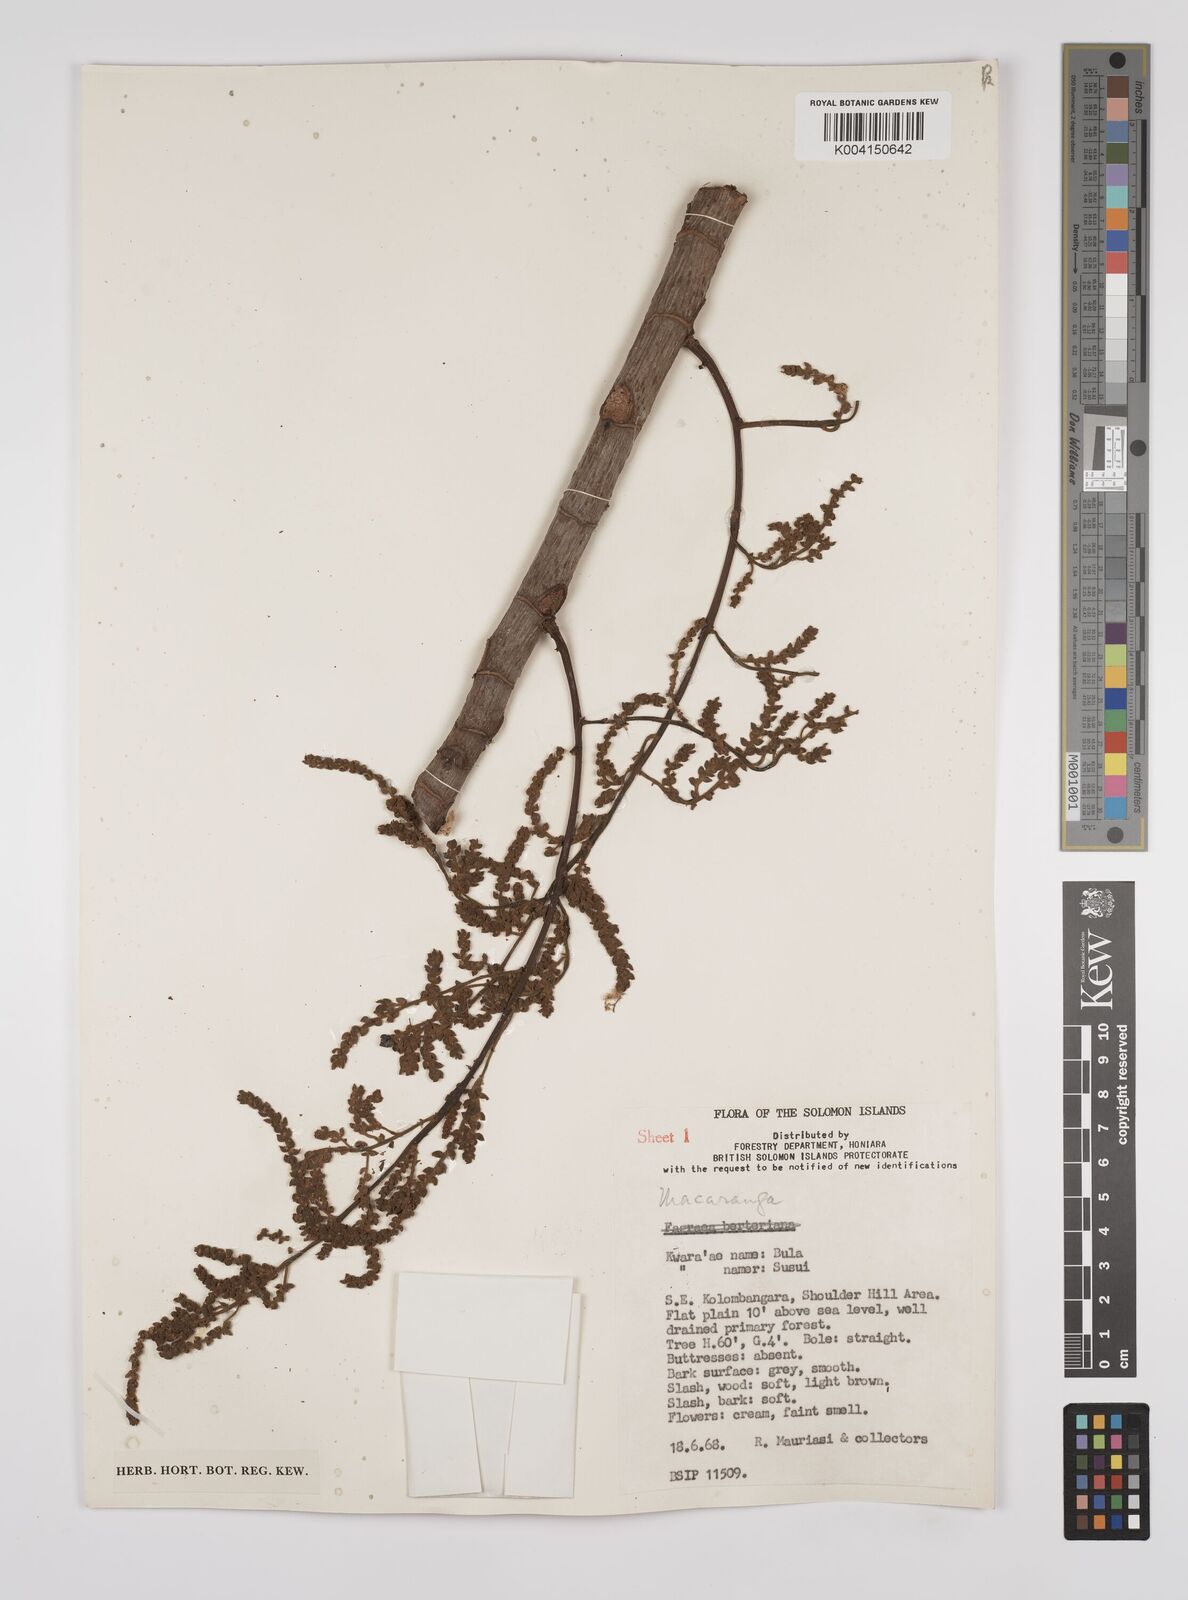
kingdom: Plantae
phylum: Tracheophyta
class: Magnoliopsida
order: Malpighiales
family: Euphorbiaceae
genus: Macaranga
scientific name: Macaranga whitmorei
